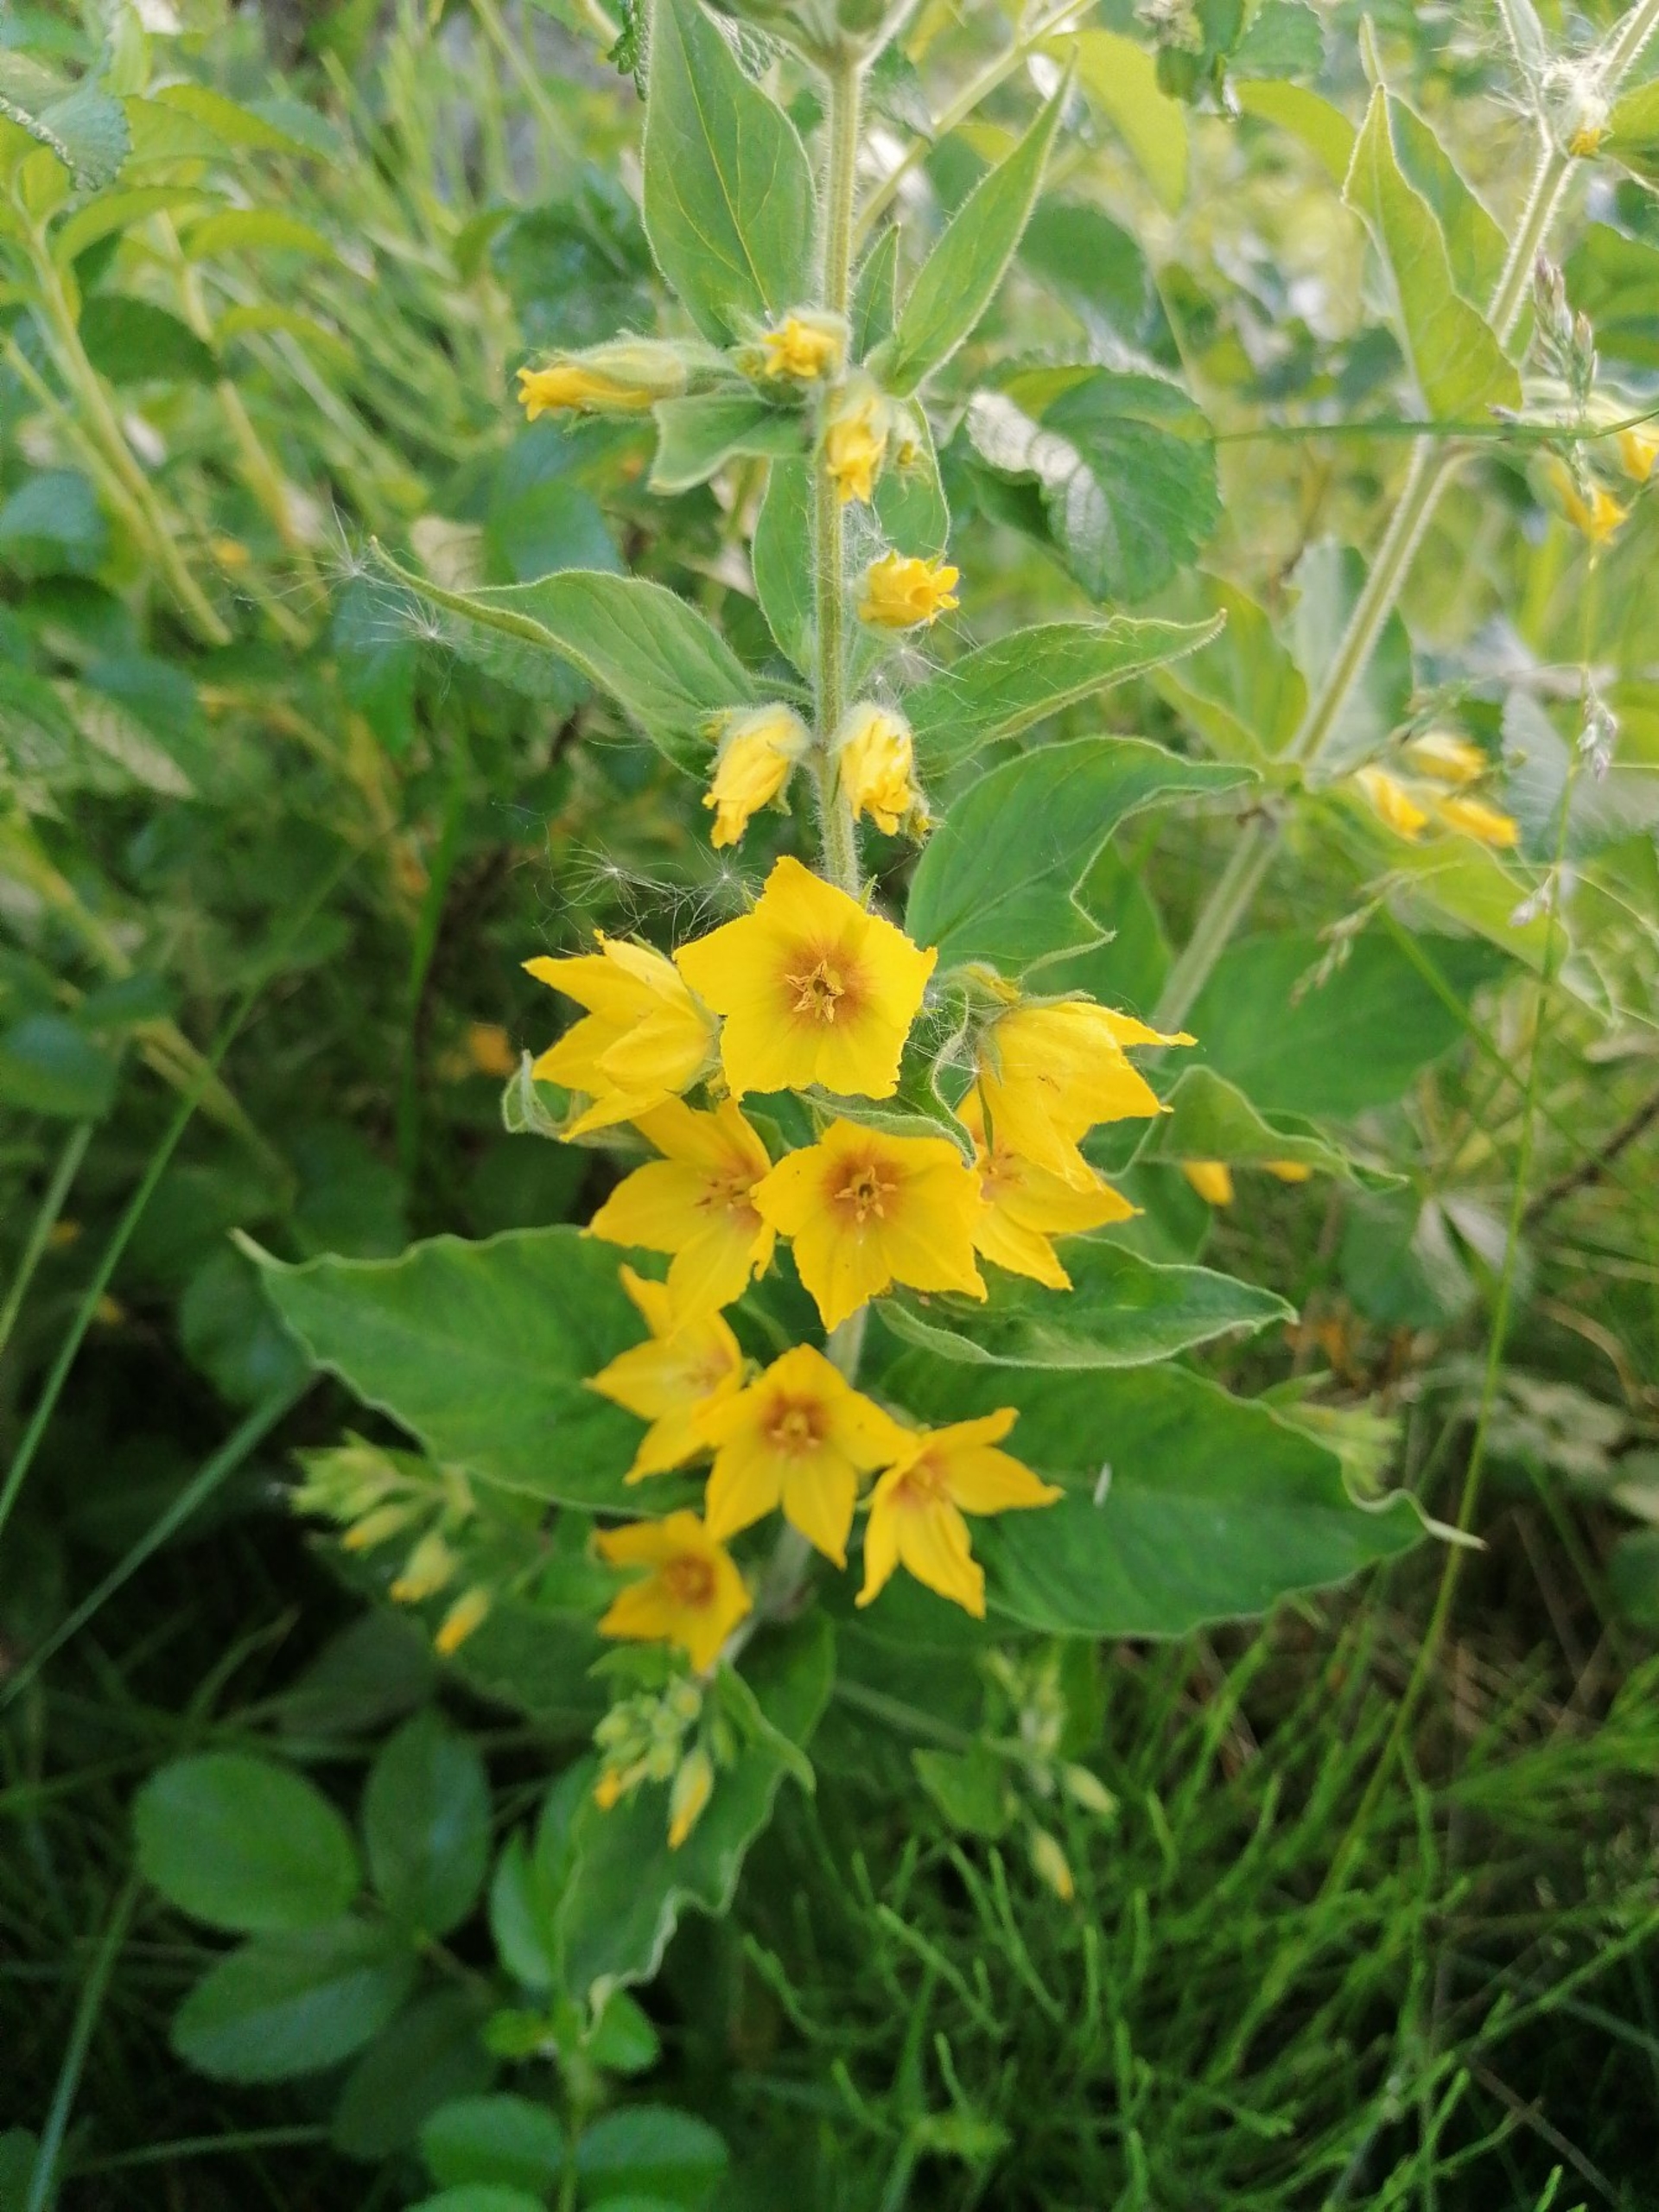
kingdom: Plantae
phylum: Tracheophyta
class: Magnoliopsida
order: Ericales
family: Primulaceae
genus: Lysimachia
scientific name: Lysimachia punctata
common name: Prikbladet fredløs
